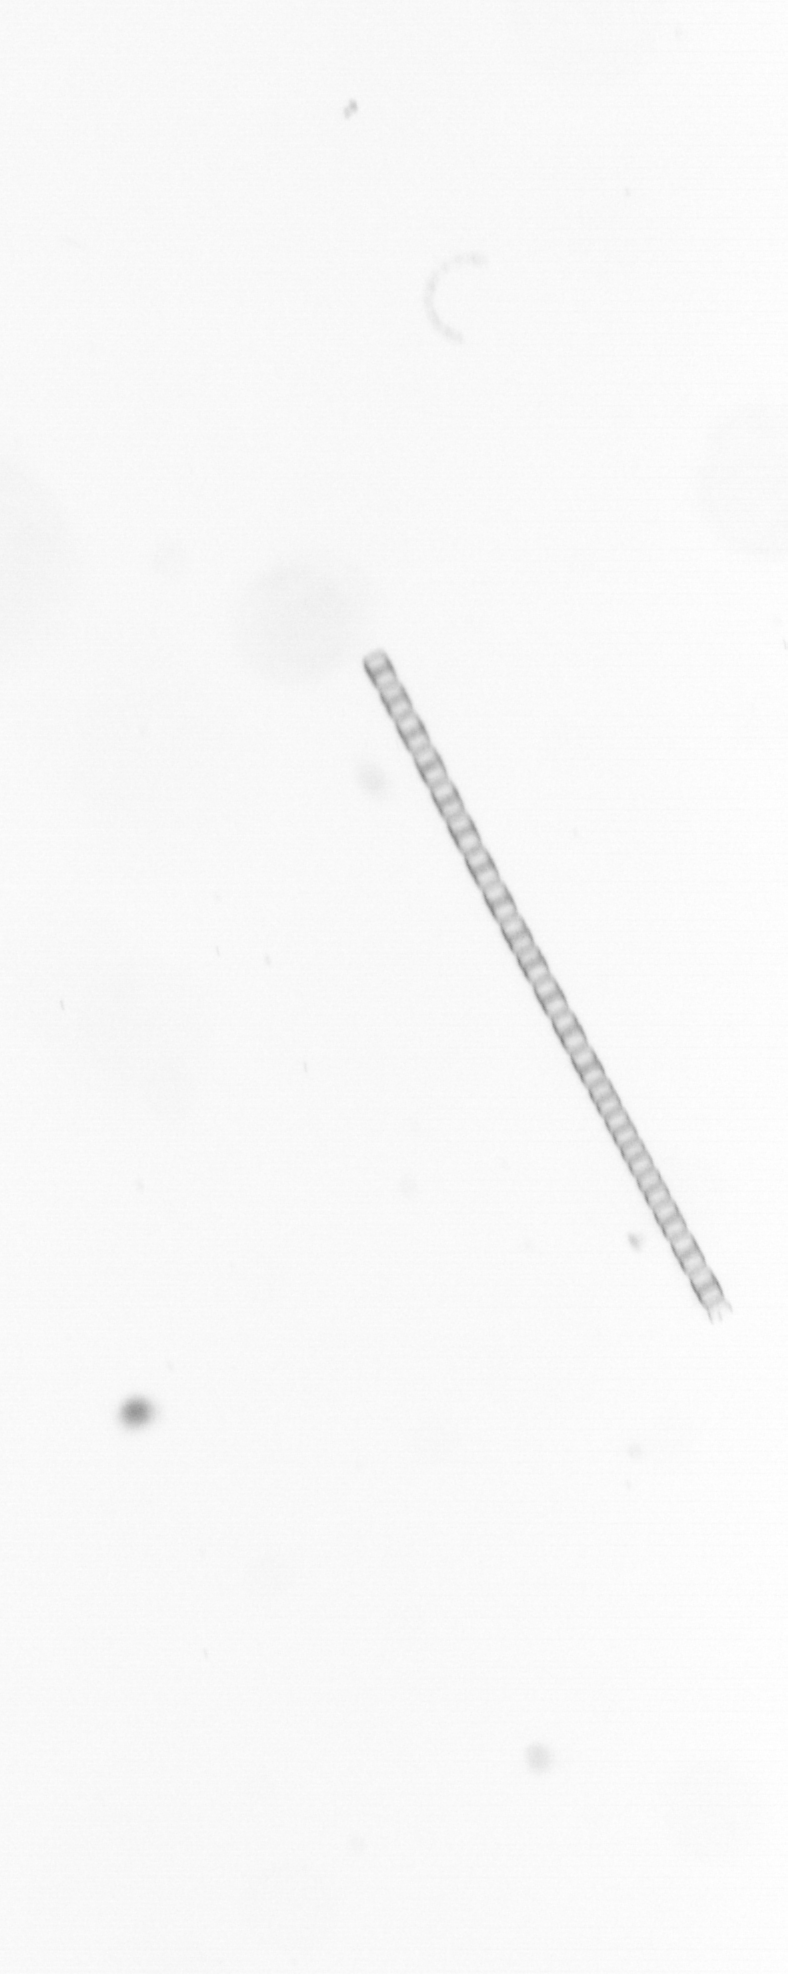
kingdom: Chromista
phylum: Ochrophyta
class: Bacillariophyceae
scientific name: Bacillariophyceae
